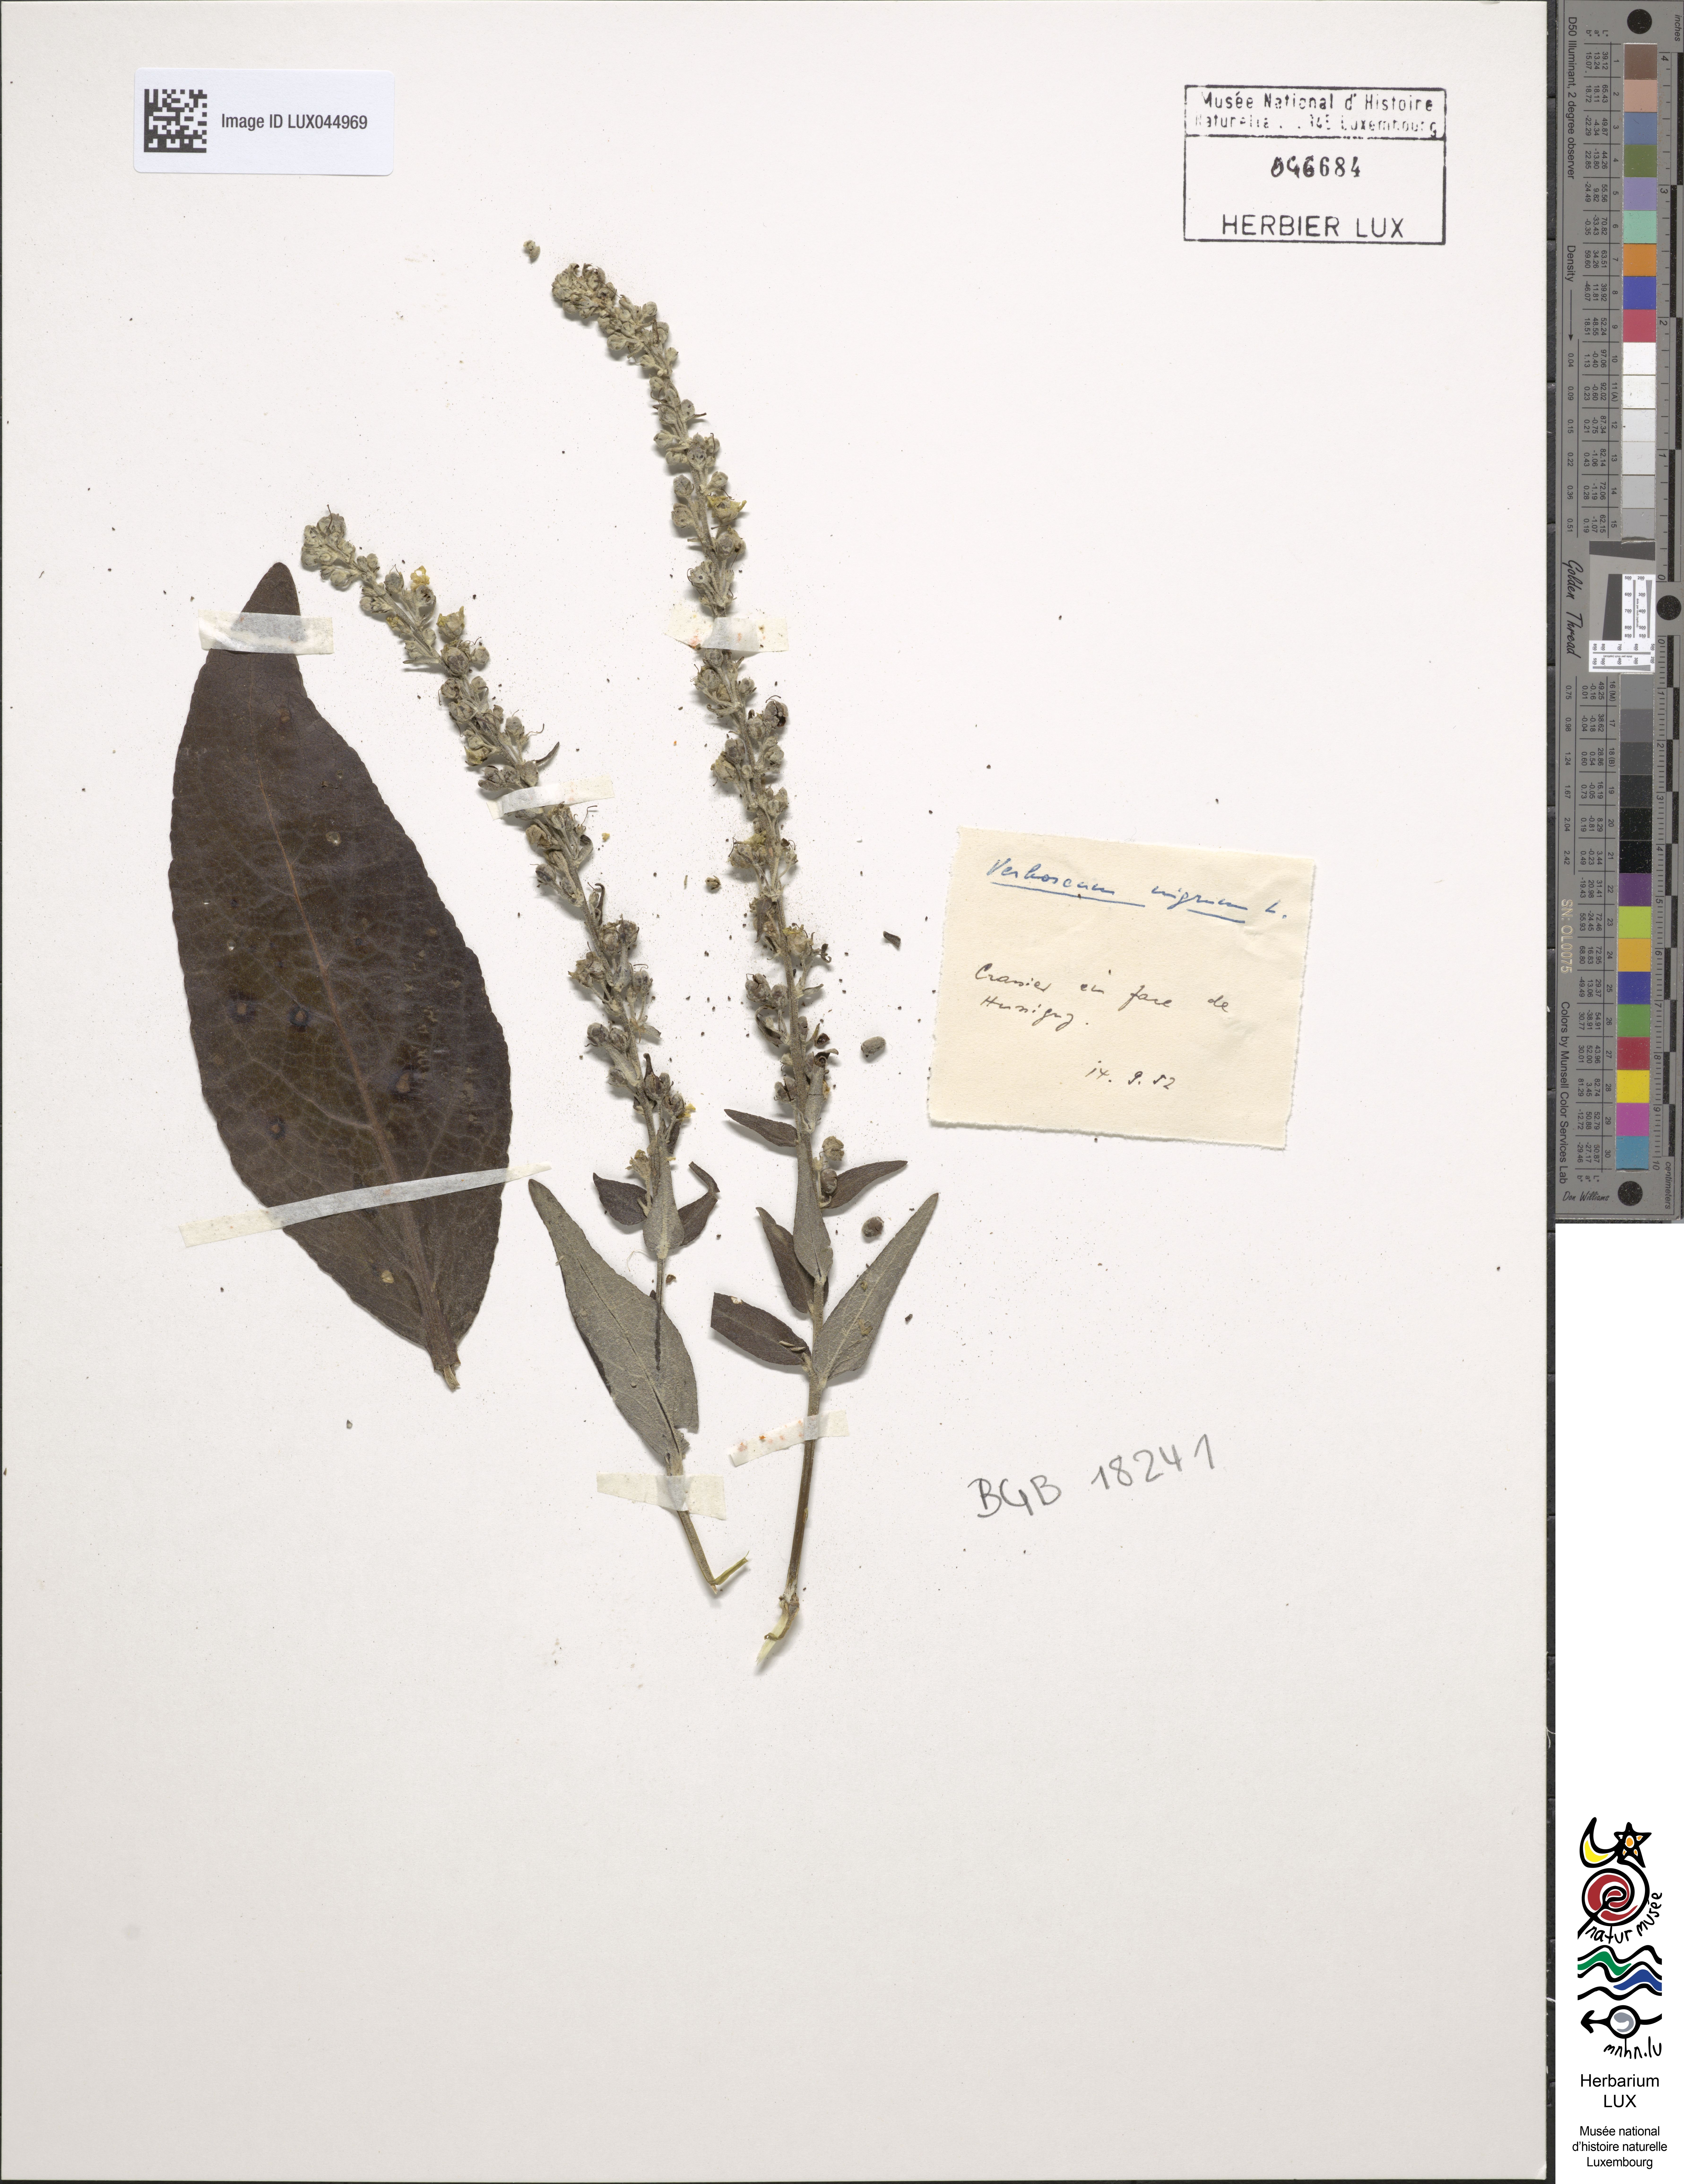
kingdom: Plantae
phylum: Tracheophyta
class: Magnoliopsida
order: Lamiales
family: Scrophulariaceae
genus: Verbascum
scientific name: Verbascum lychnitis
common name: White mullein
